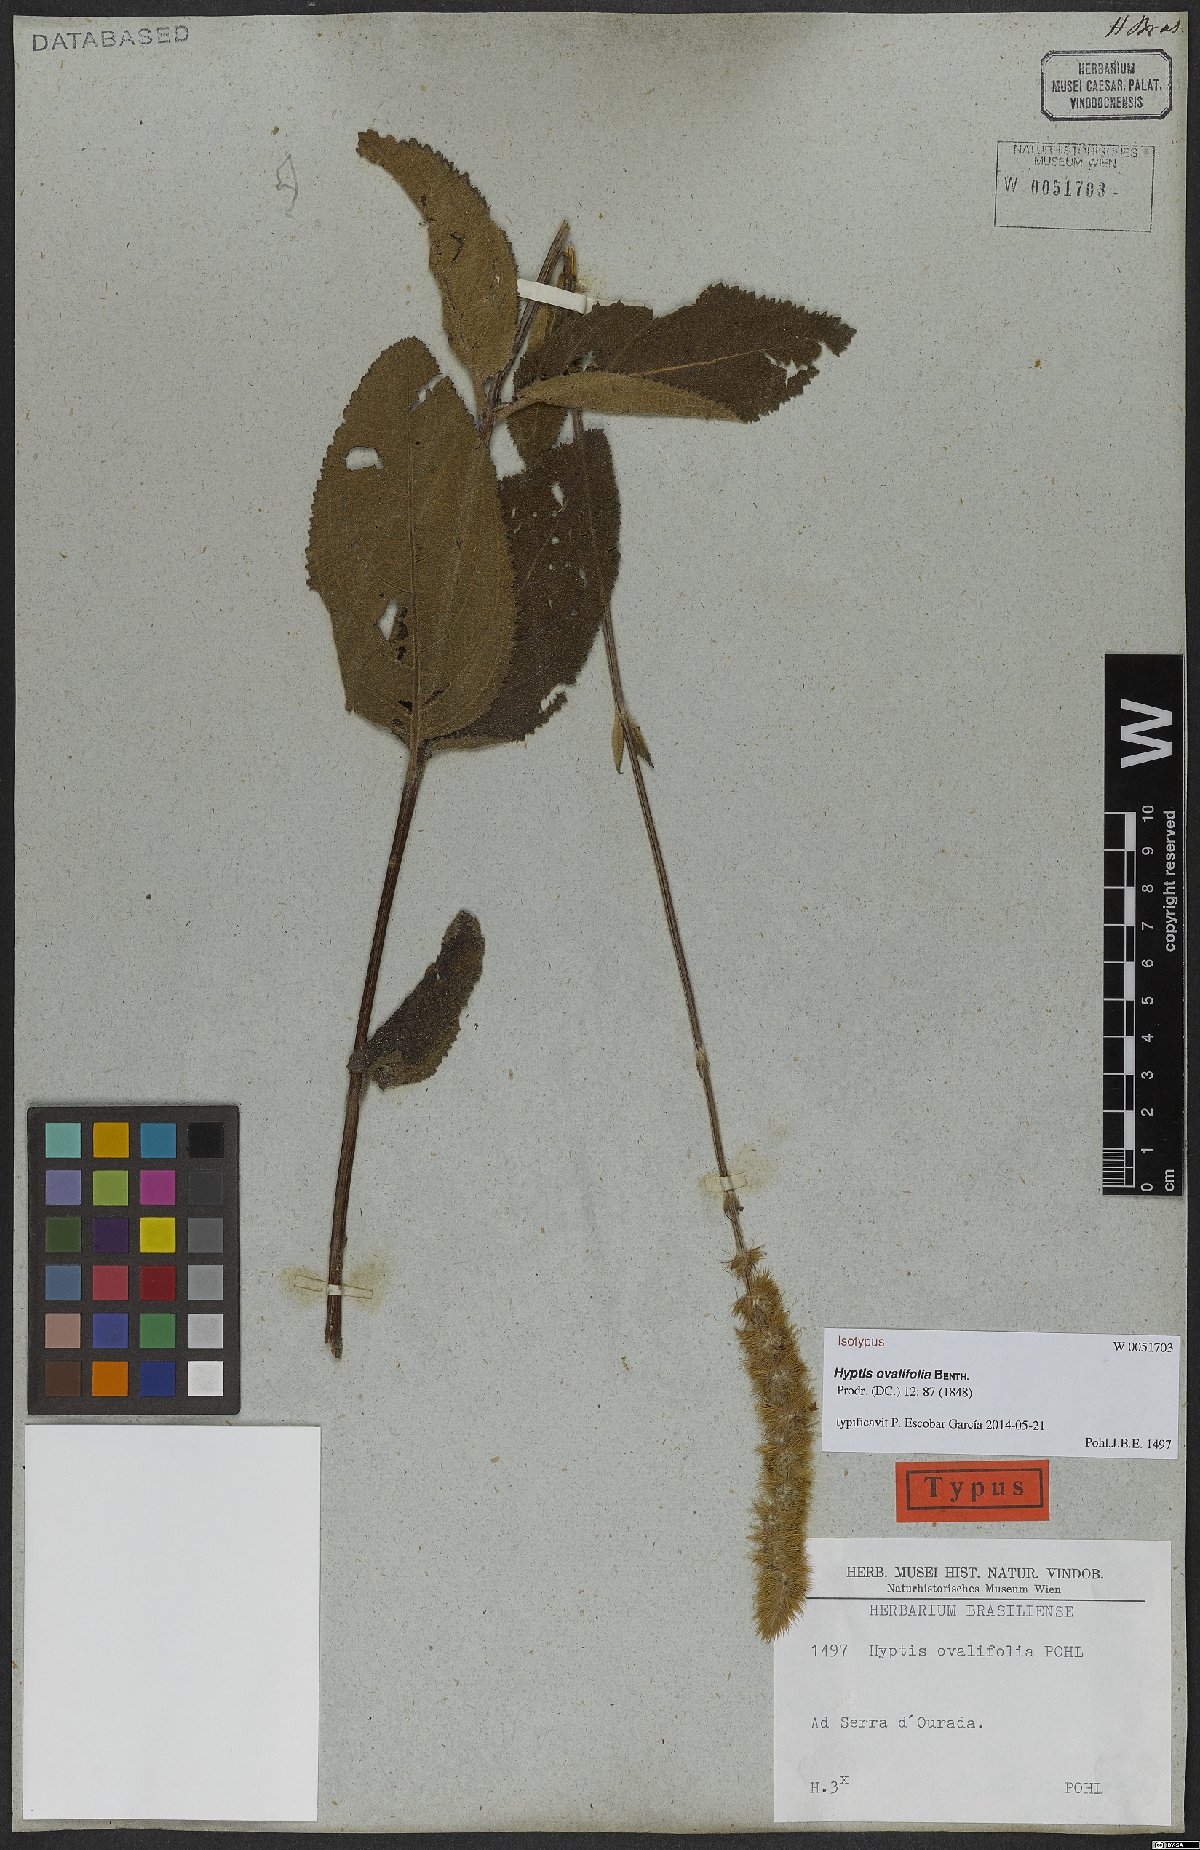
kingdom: Plantae
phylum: Tracheophyta
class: Magnoliopsida
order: Lamiales
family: Lamiaceae
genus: Hyptis
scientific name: Hyptis ovalifolia
